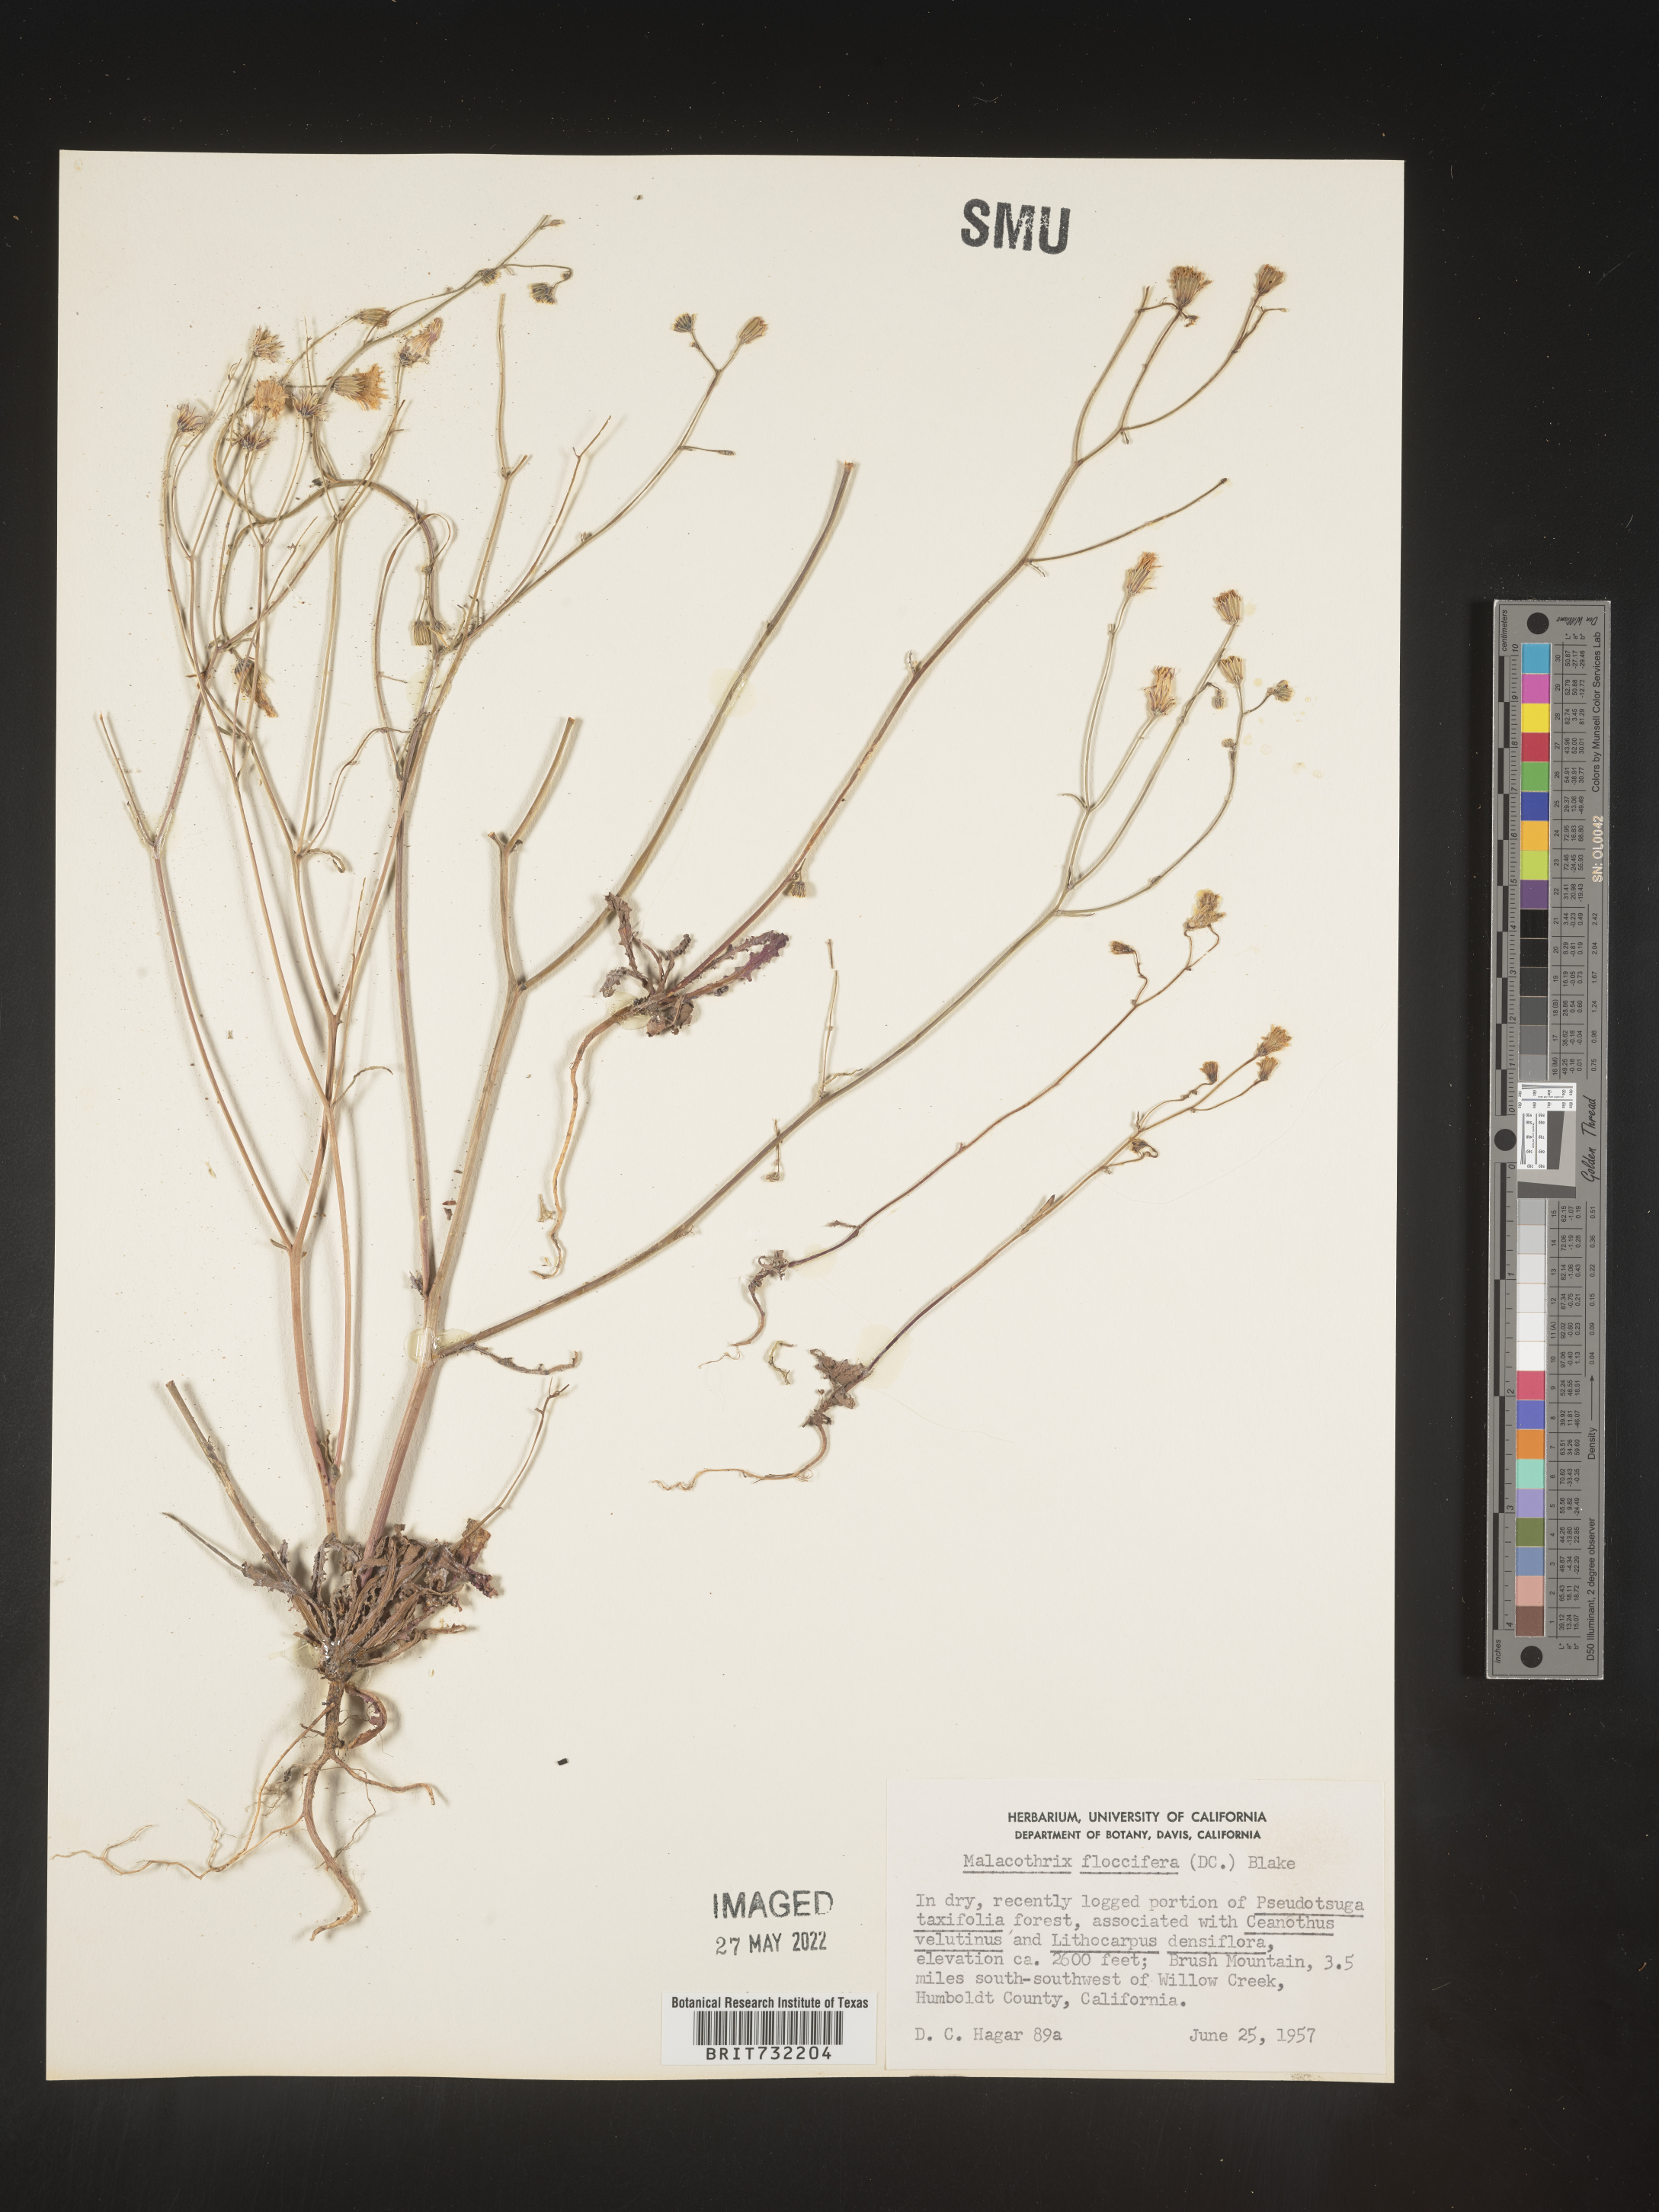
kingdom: Plantae
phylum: Tracheophyta
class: Magnoliopsida
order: Asterales
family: Asteraceae
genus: Malacothrix
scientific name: Malacothrix
